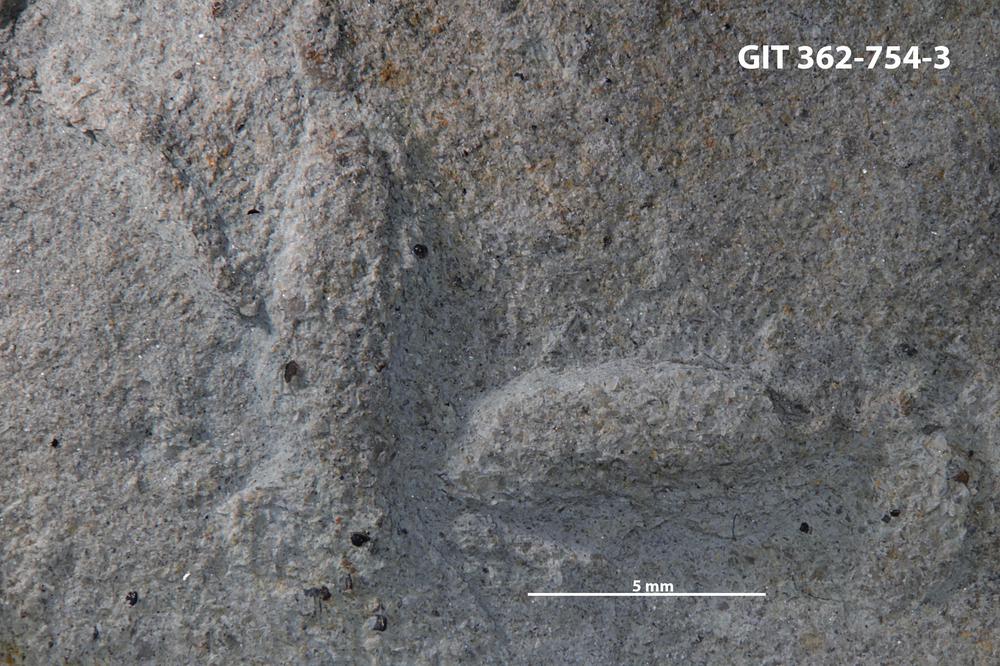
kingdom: Animalia
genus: Protovirgularia
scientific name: Protovirgularia
